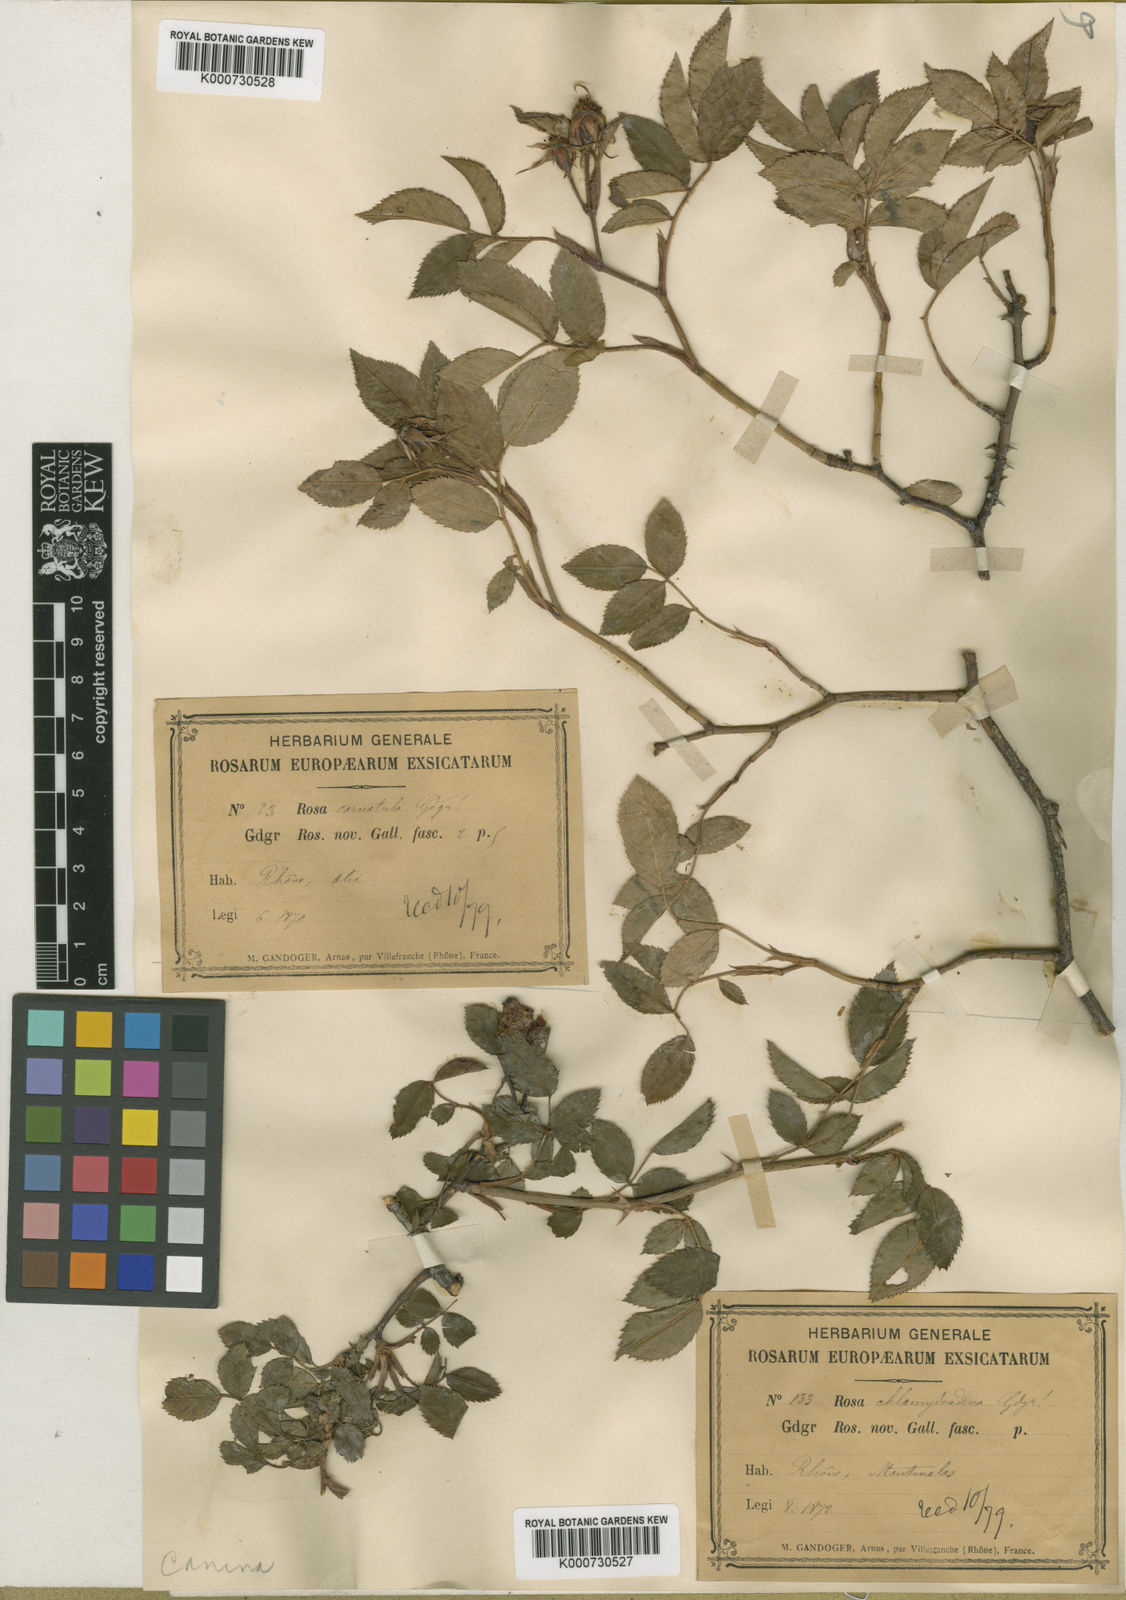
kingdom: Plantae
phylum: Tracheophyta
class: Magnoliopsida
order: Rosales
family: Rosaceae
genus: Rosa
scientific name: Rosa canina
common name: Dog rose
